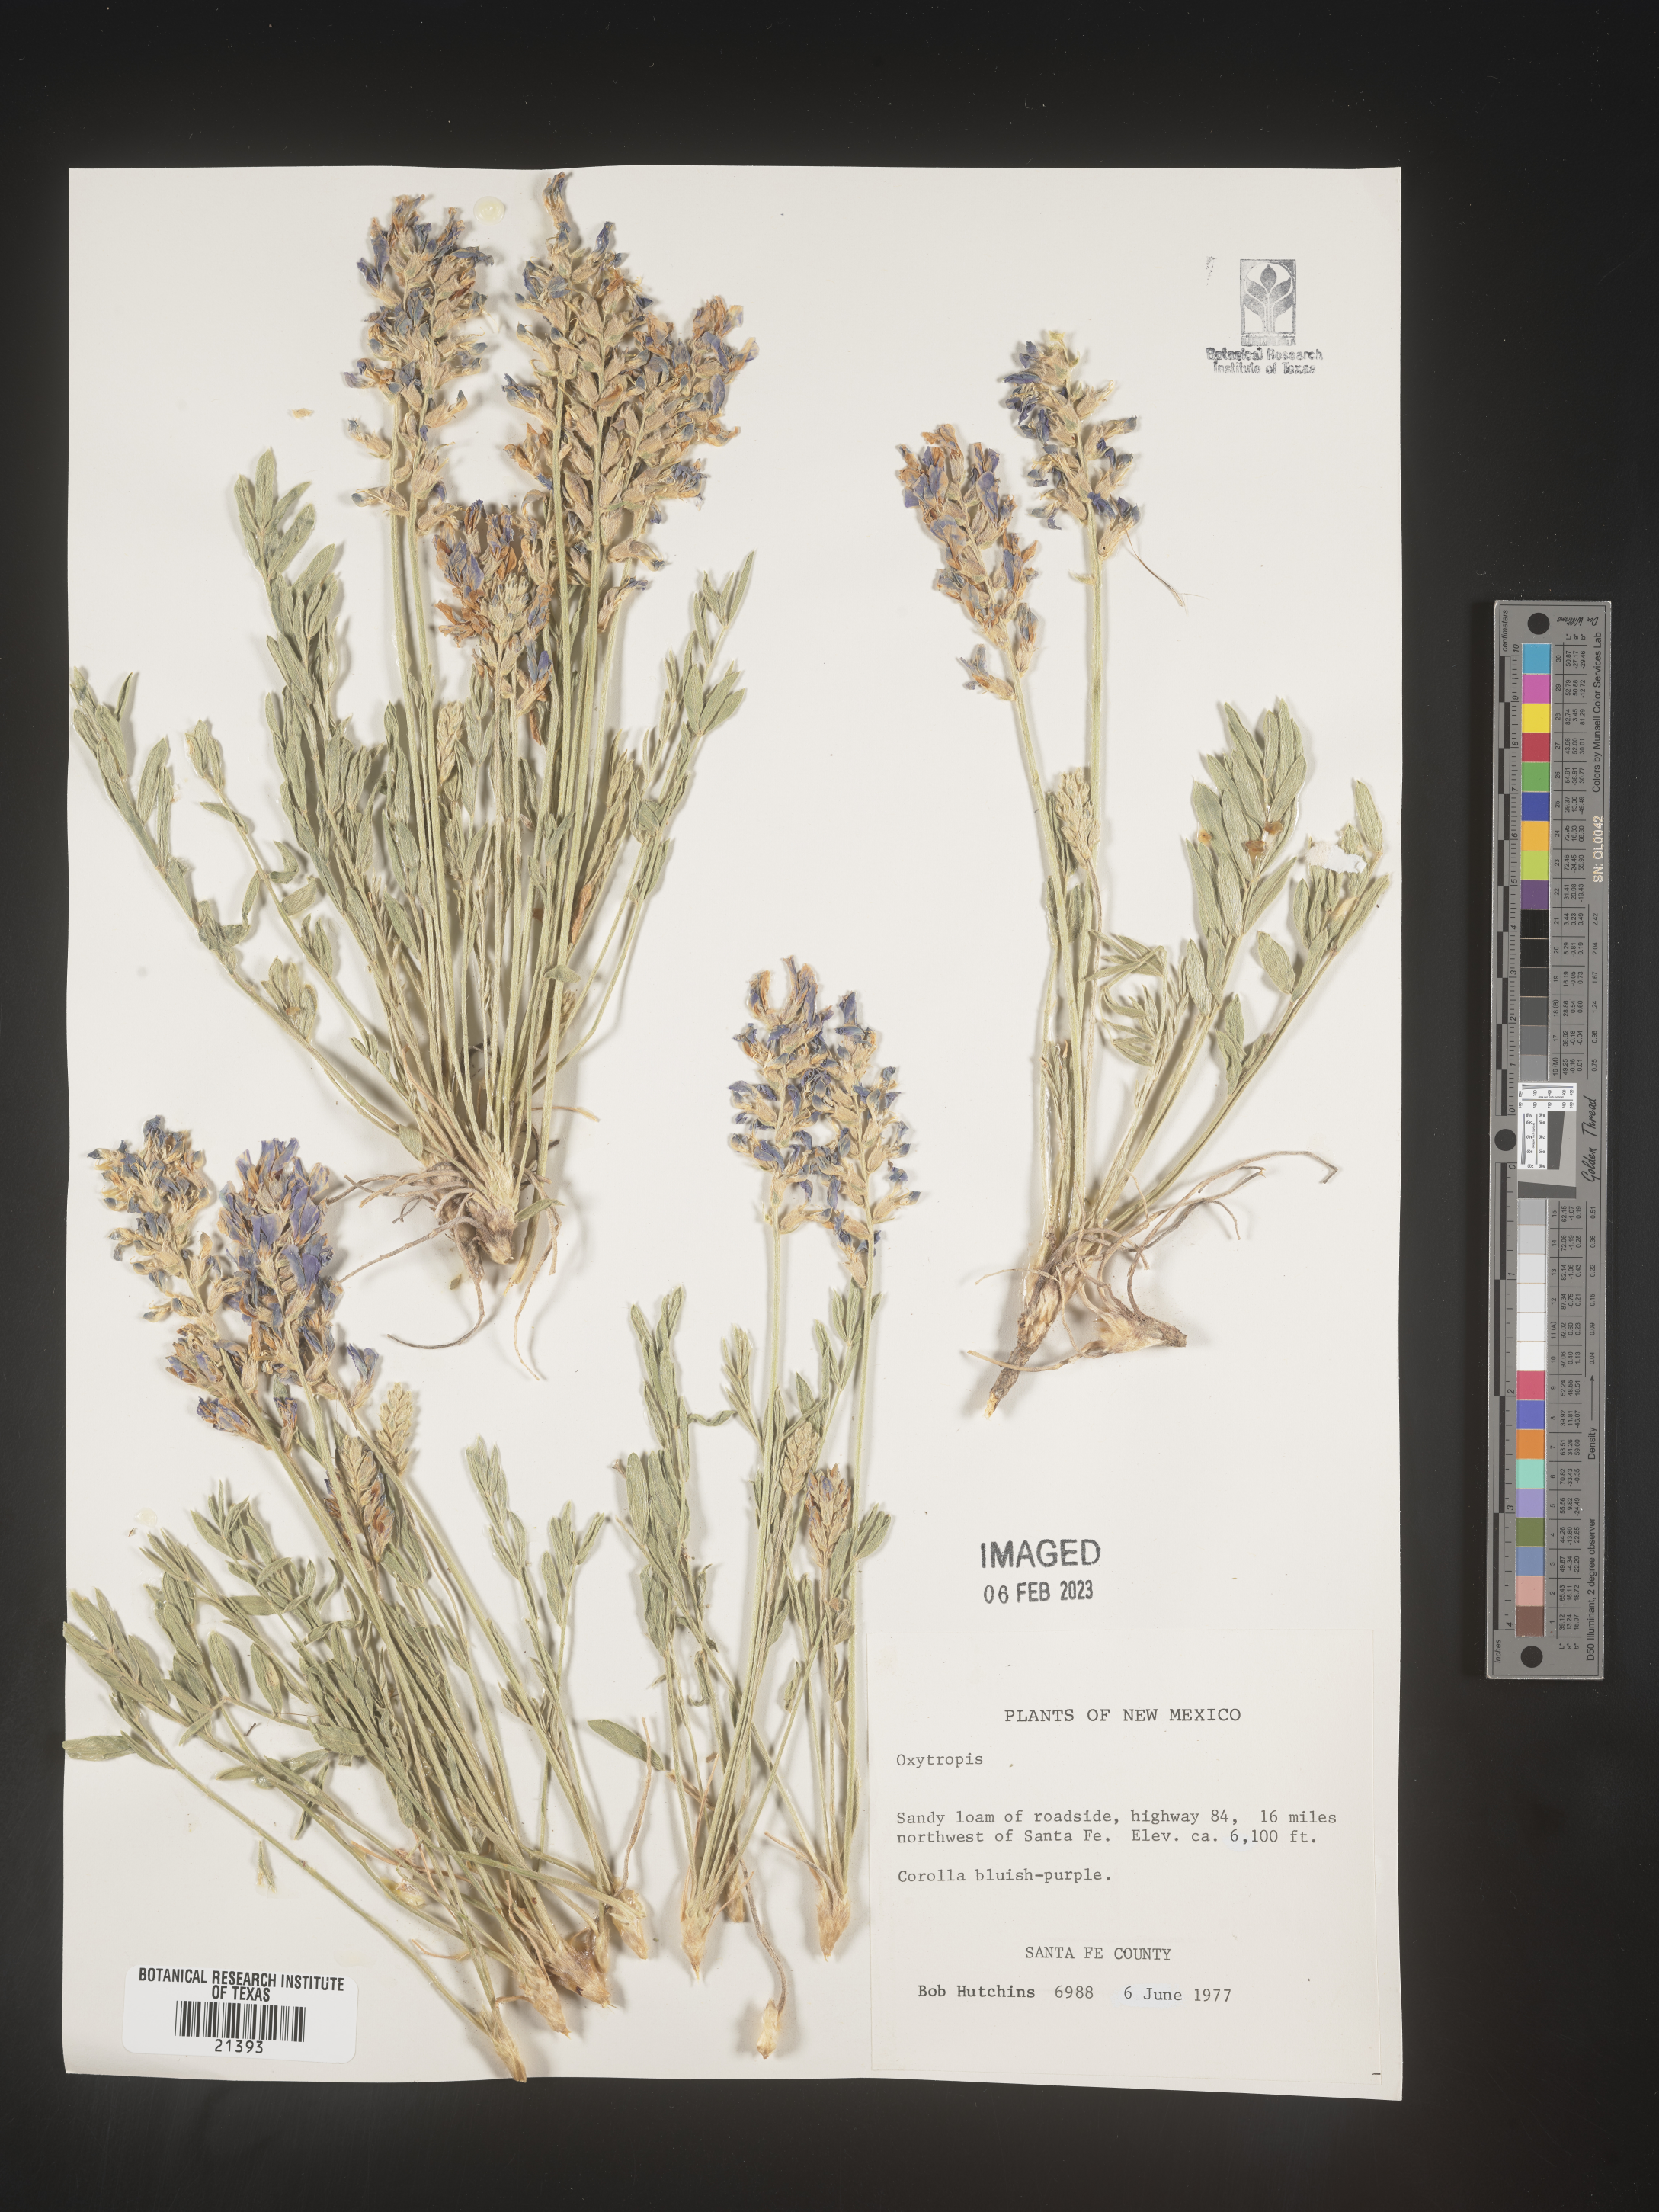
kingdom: Plantae
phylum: Tracheophyta
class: Magnoliopsida
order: Fabales
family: Fabaceae
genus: Oxytropis
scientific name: Oxytropis
